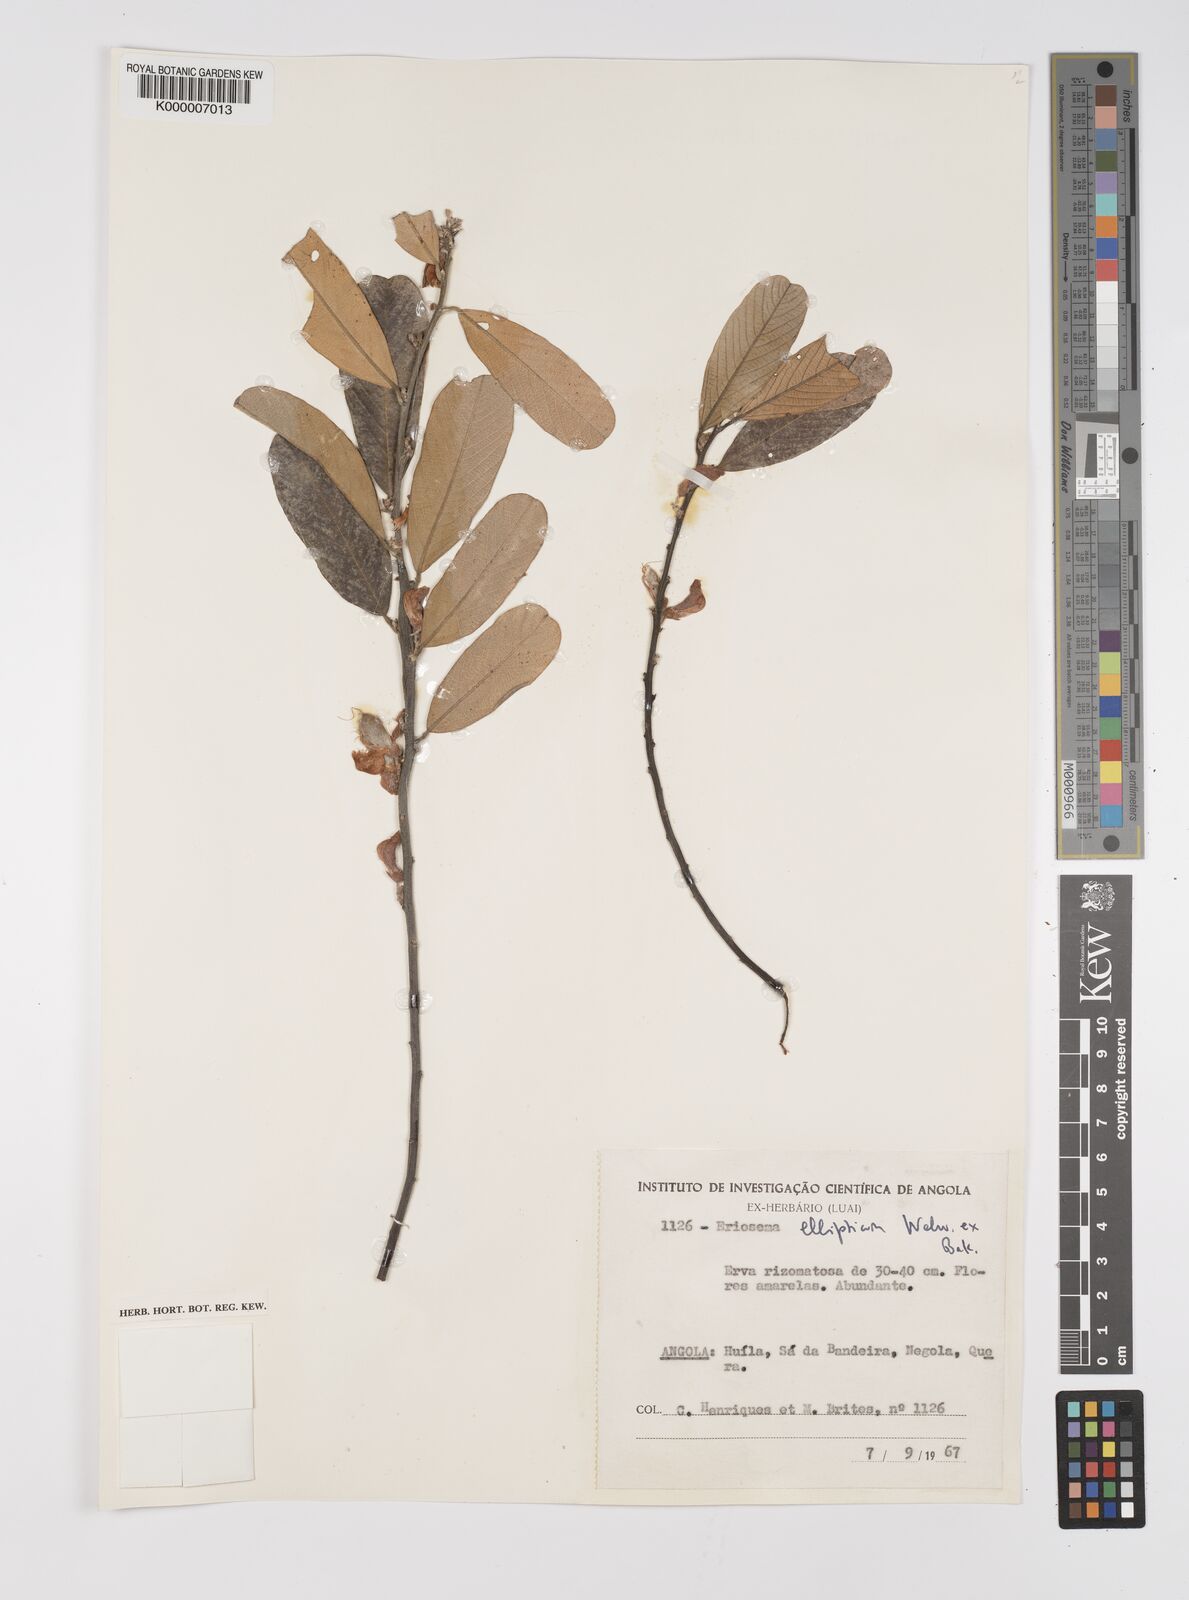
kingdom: Plantae
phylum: Tracheophyta
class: Magnoliopsida
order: Fabales
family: Fabaceae
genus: Eriosema
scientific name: Eriosema ellipticum
